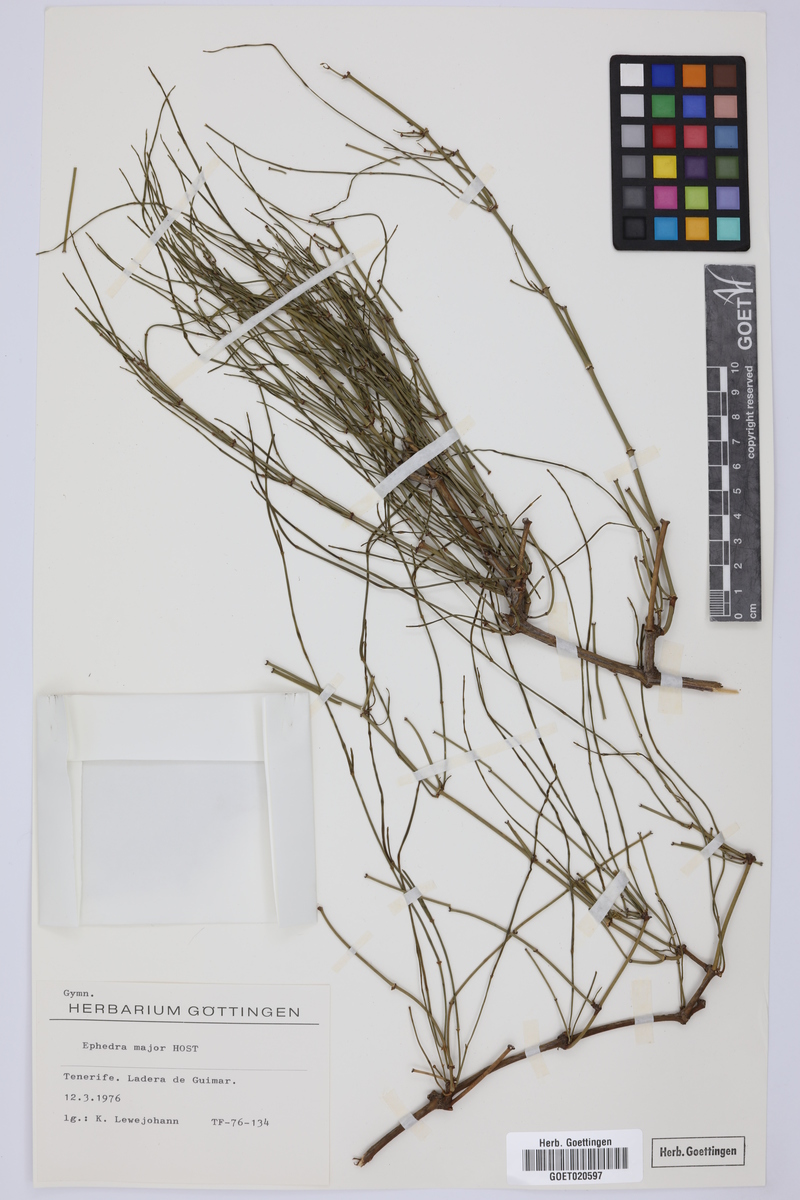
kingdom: Plantae
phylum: Tracheophyta
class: Gnetopsida
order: Ephedrales
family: Ephedraceae
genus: Ephedra
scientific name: Ephedra foeminea
